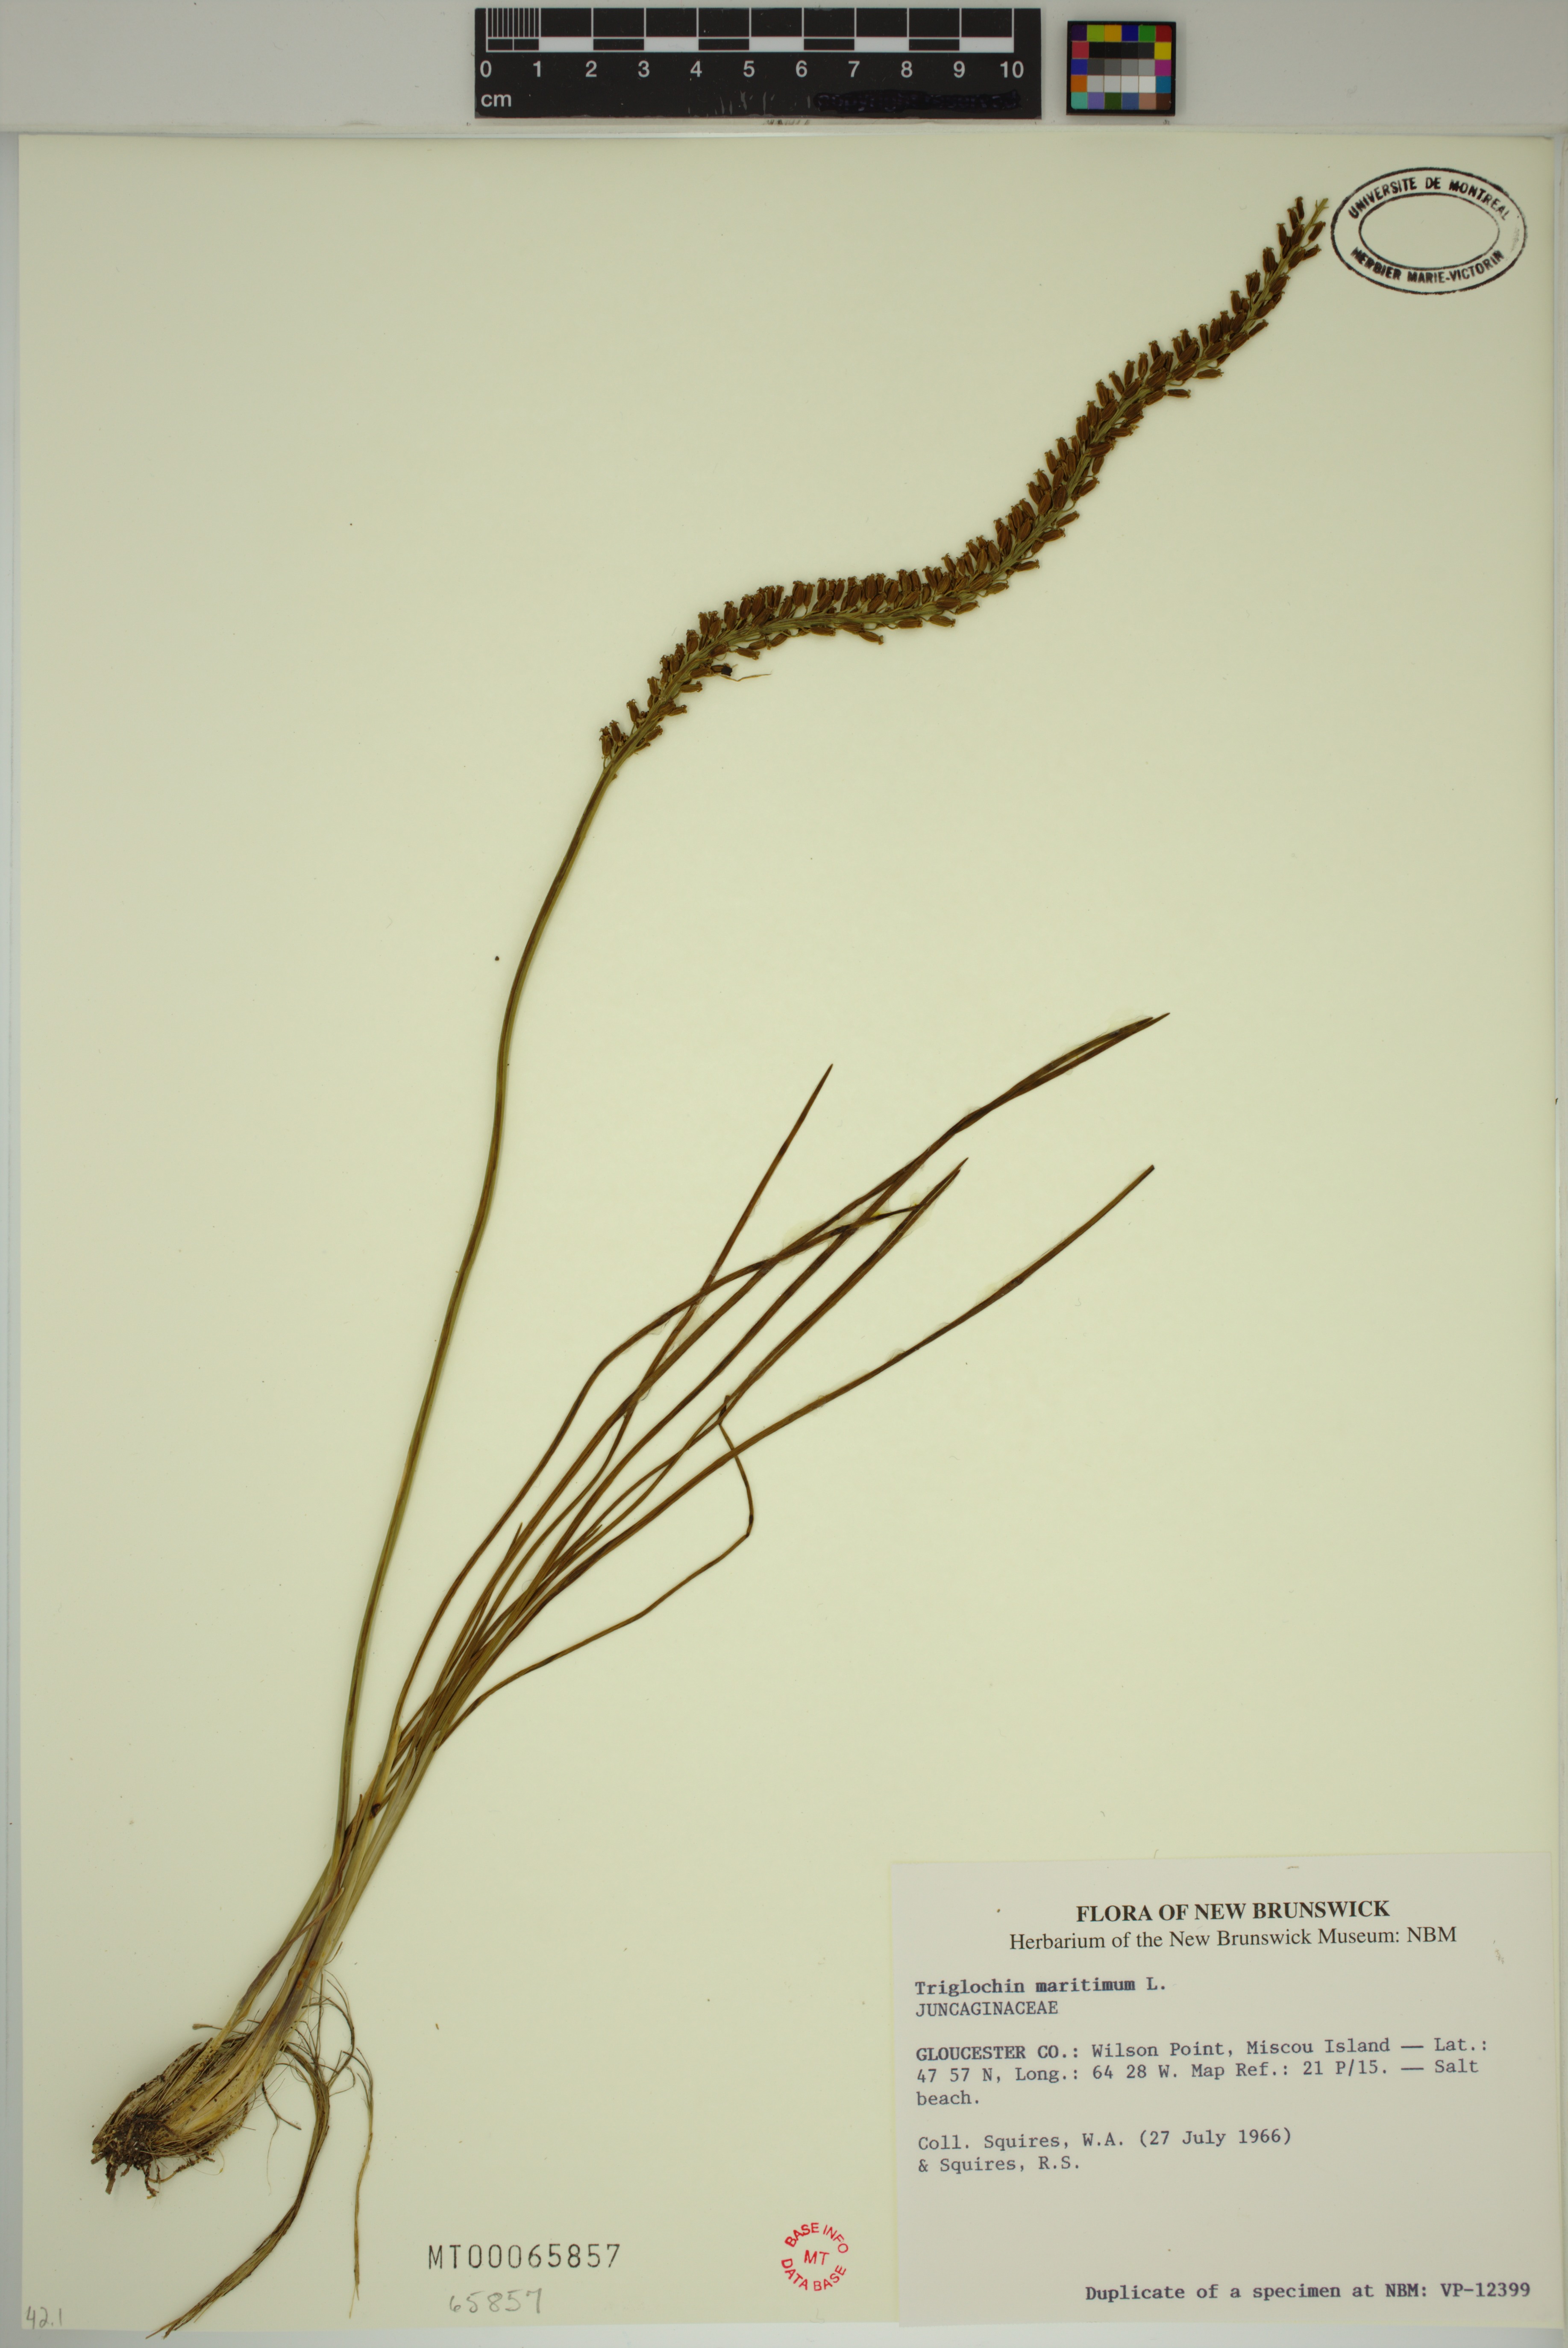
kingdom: Plantae
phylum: Tracheophyta
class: Liliopsida
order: Alismatales
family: Juncaginaceae
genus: Triglochin
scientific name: Triglochin maritima
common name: Sea arrowgrass
